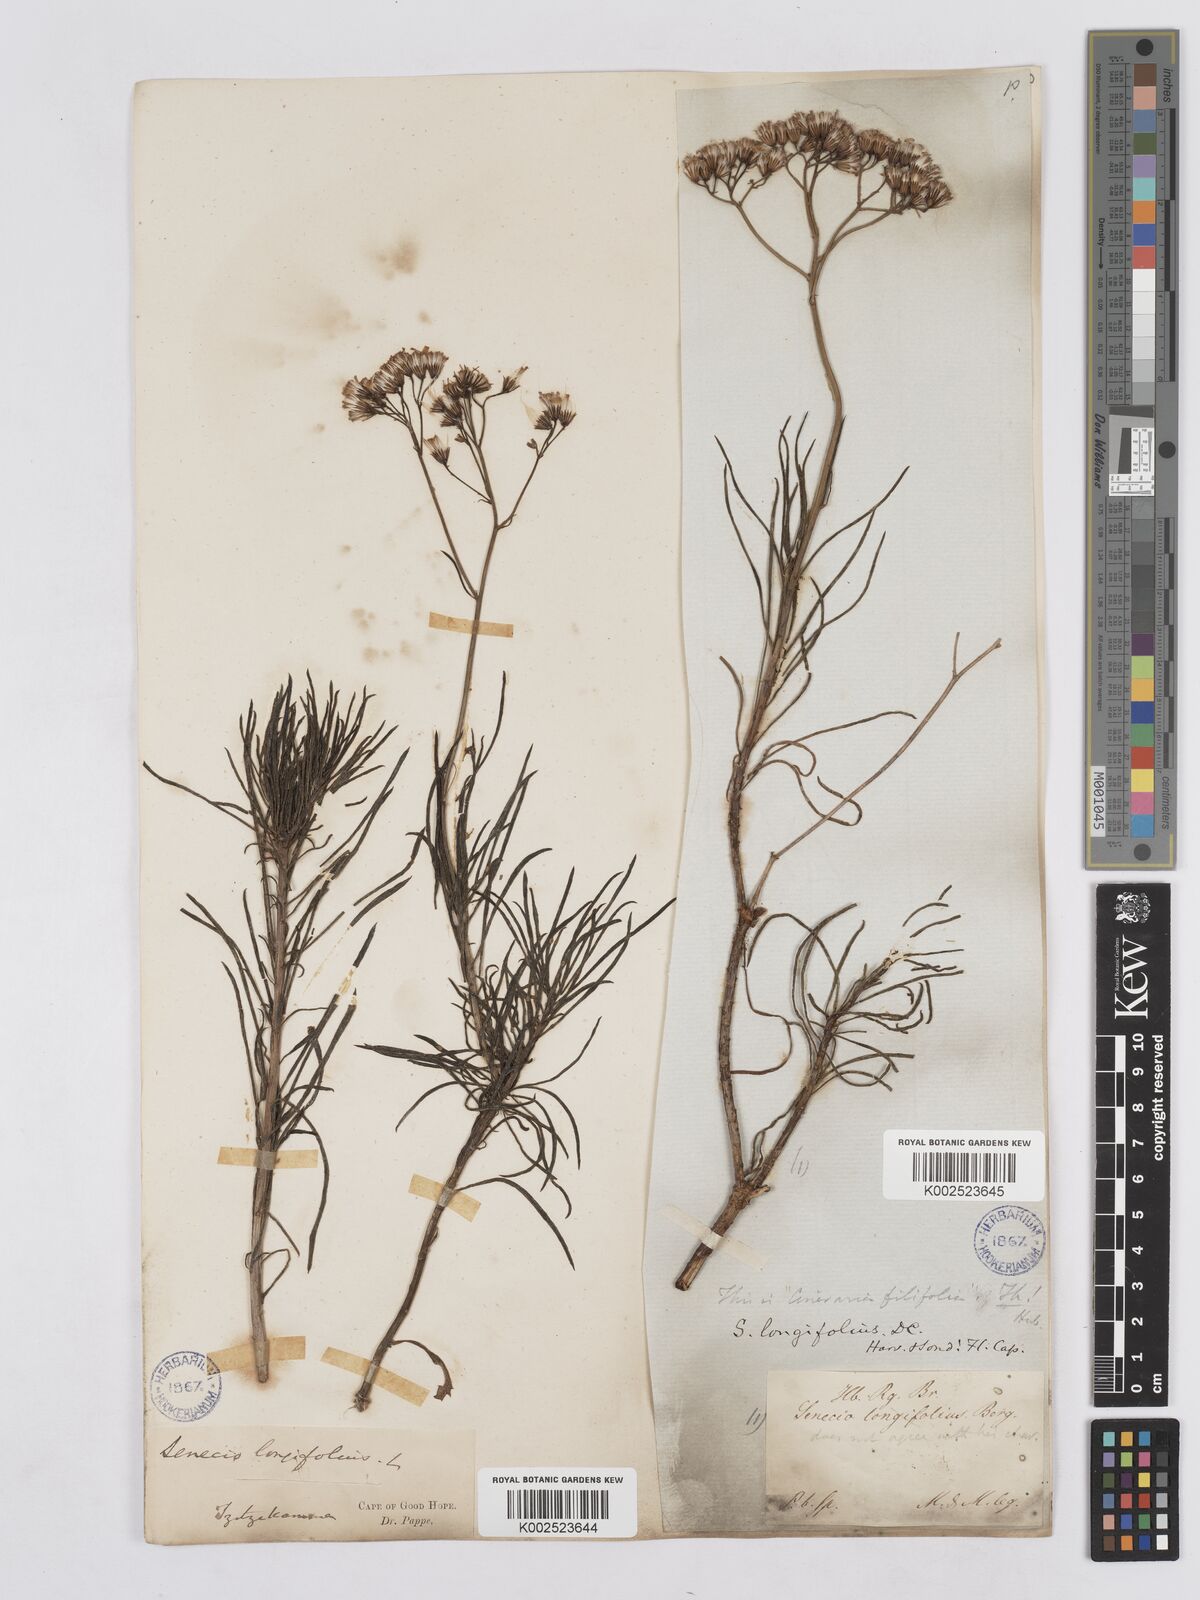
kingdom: Plantae
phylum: Tracheophyta
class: Magnoliopsida
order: Asterales
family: Asteraceae
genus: Senecio
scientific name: Senecio linifolius
